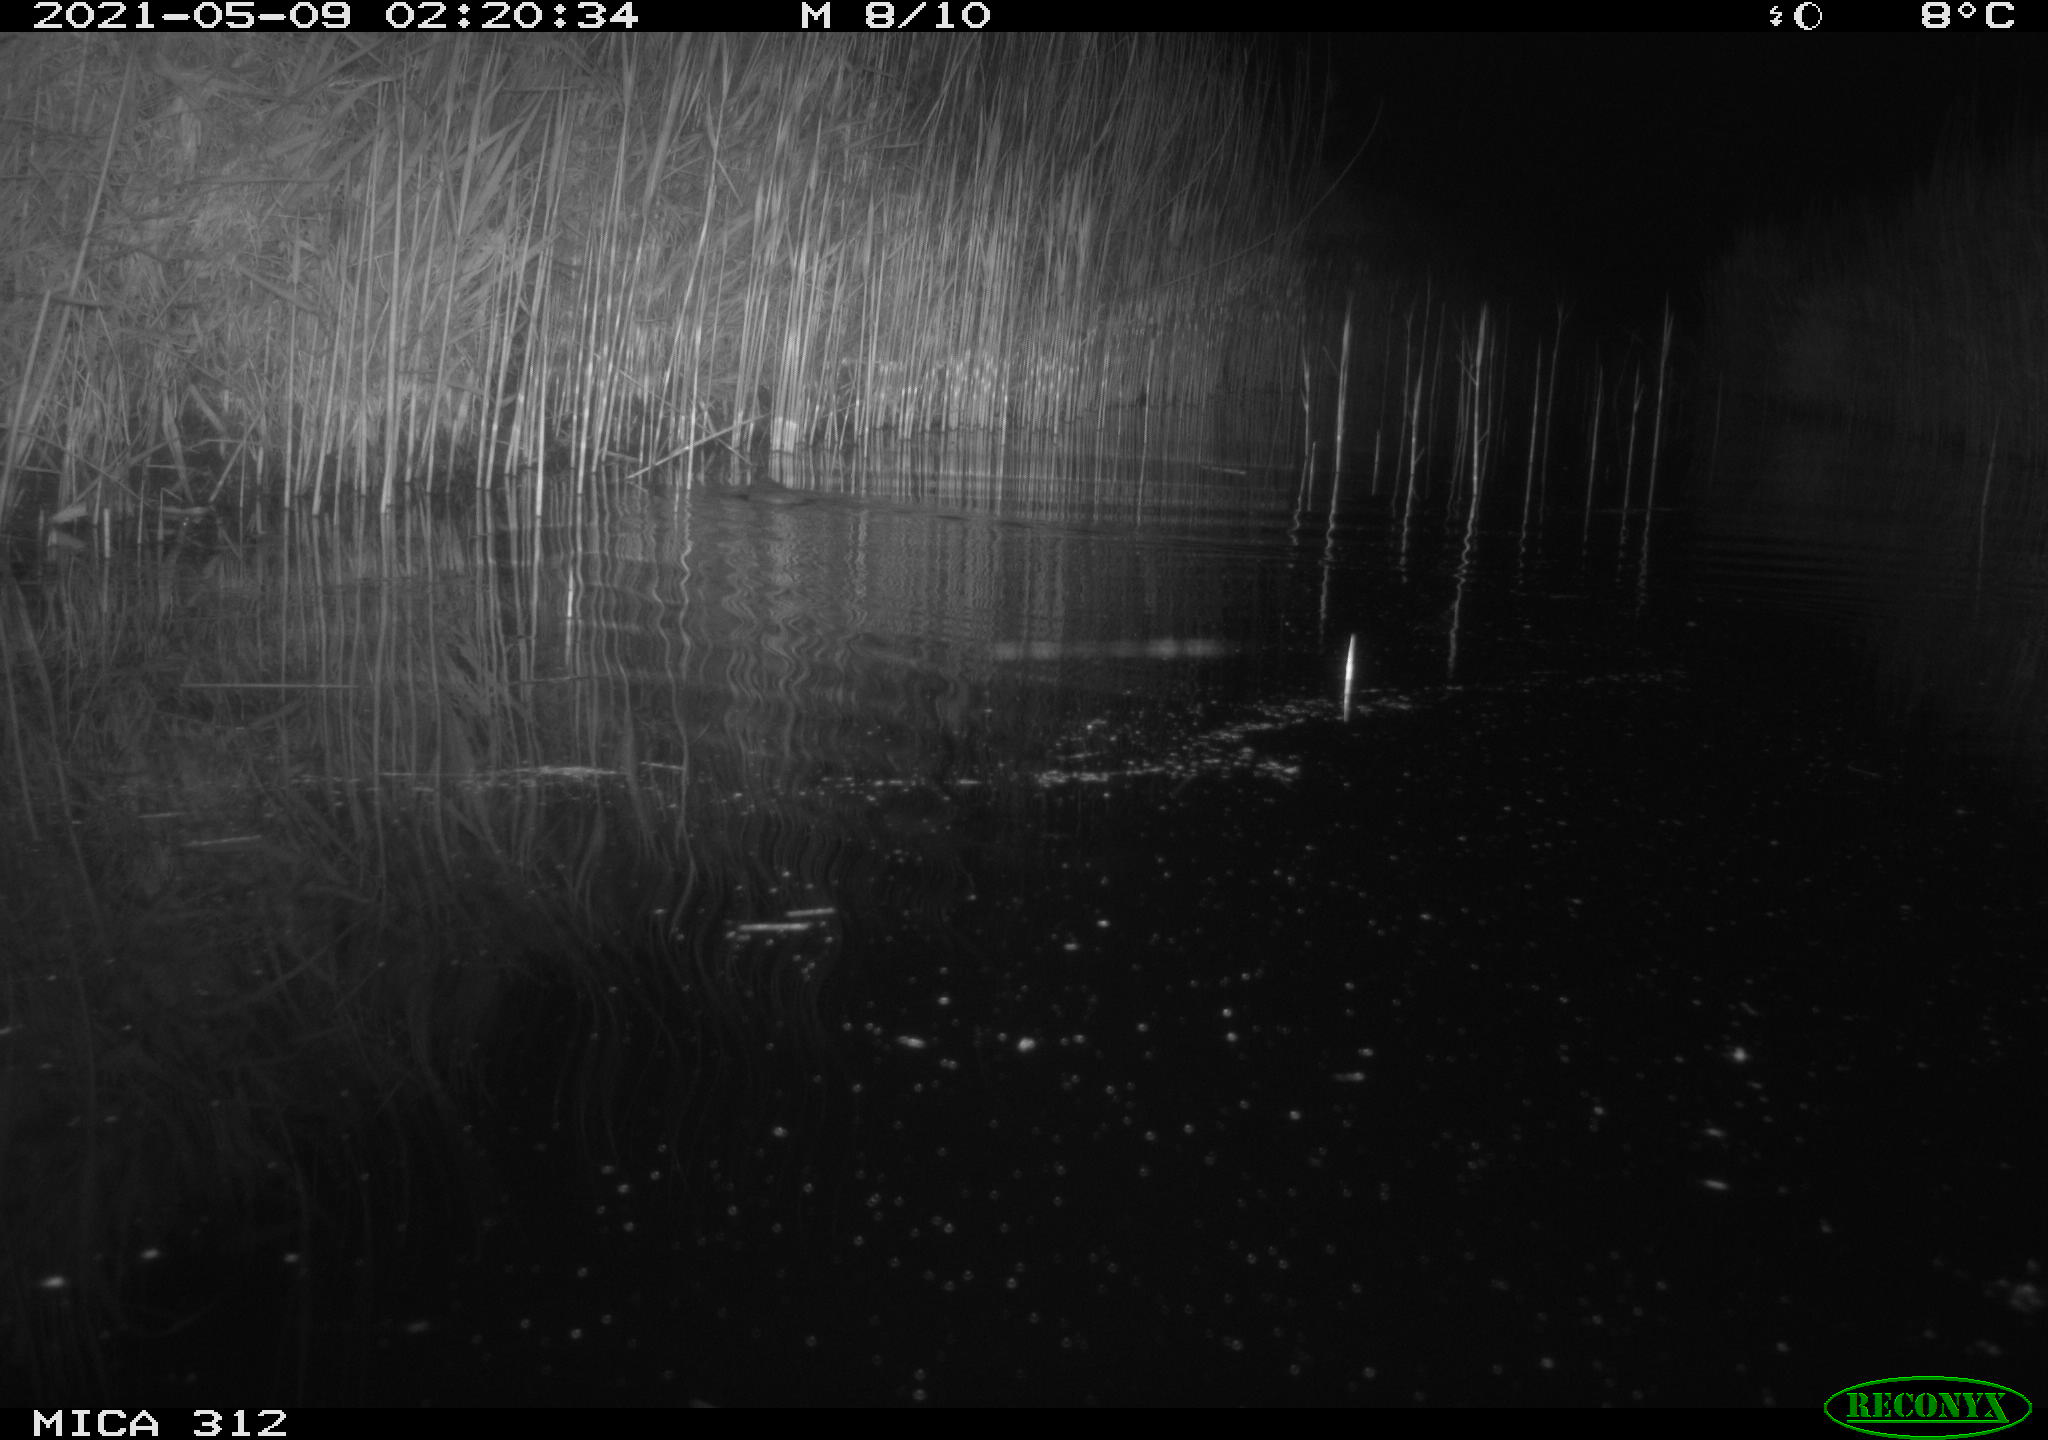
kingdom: Animalia
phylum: Chordata
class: Mammalia
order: Rodentia
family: Cricetidae
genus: Ondatra
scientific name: Ondatra zibethicus
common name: Muskrat
